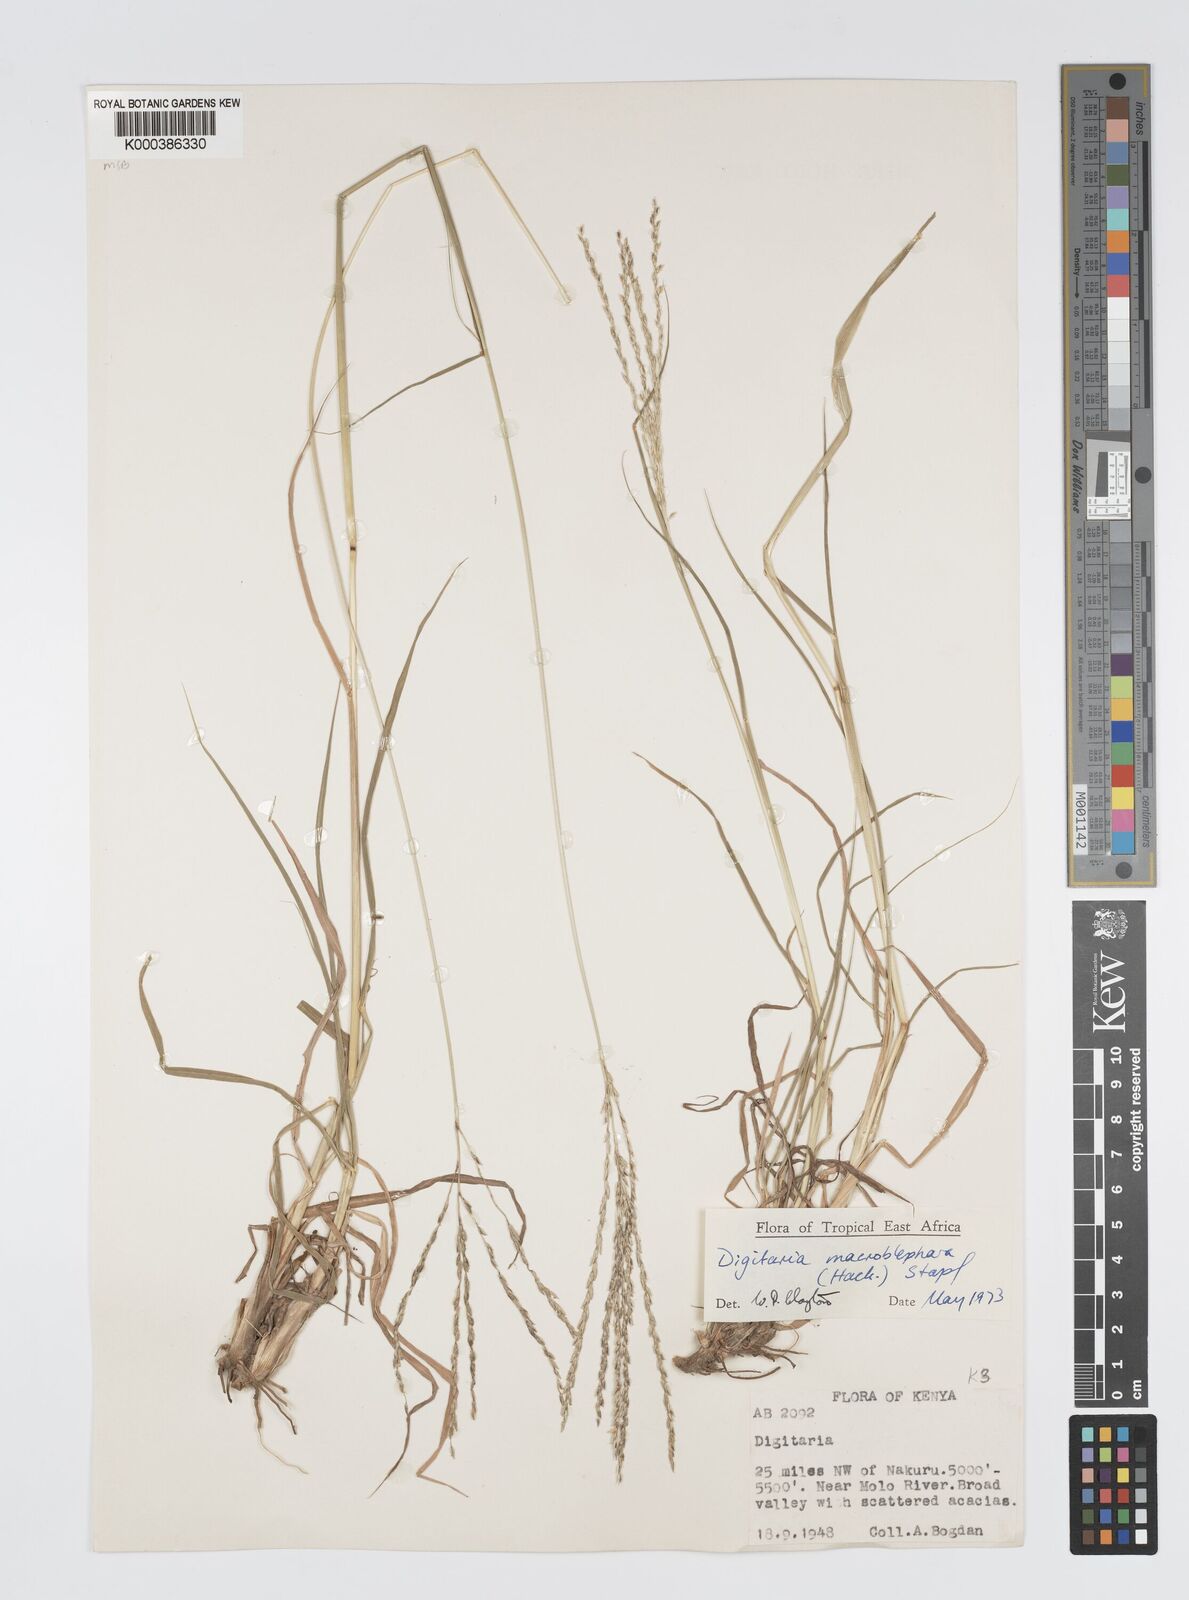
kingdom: Plantae
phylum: Tracheophyta
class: Liliopsida
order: Poales
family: Poaceae
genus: Digitaria
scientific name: Digitaria macroblephara
